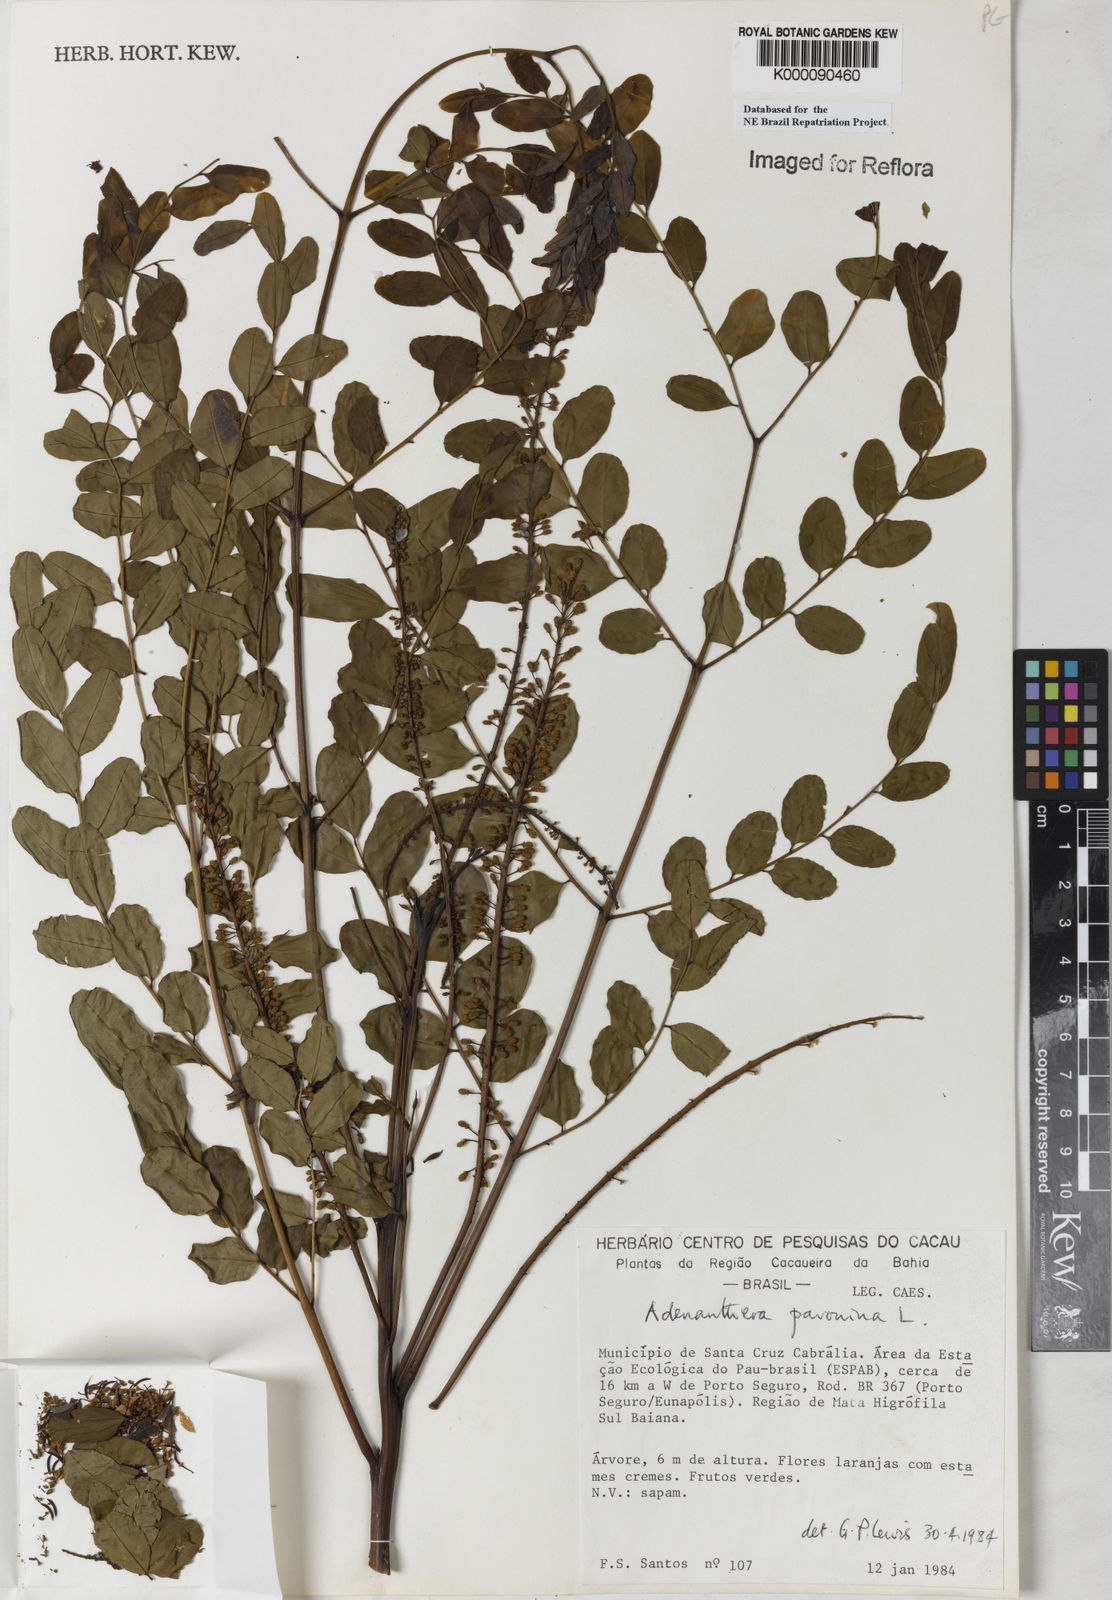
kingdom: Plantae
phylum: Tracheophyta
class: Magnoliopsida
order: Fabales
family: Fabaceae
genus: Adenanthera
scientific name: Adenanthera pavonina
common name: Red beadtree
